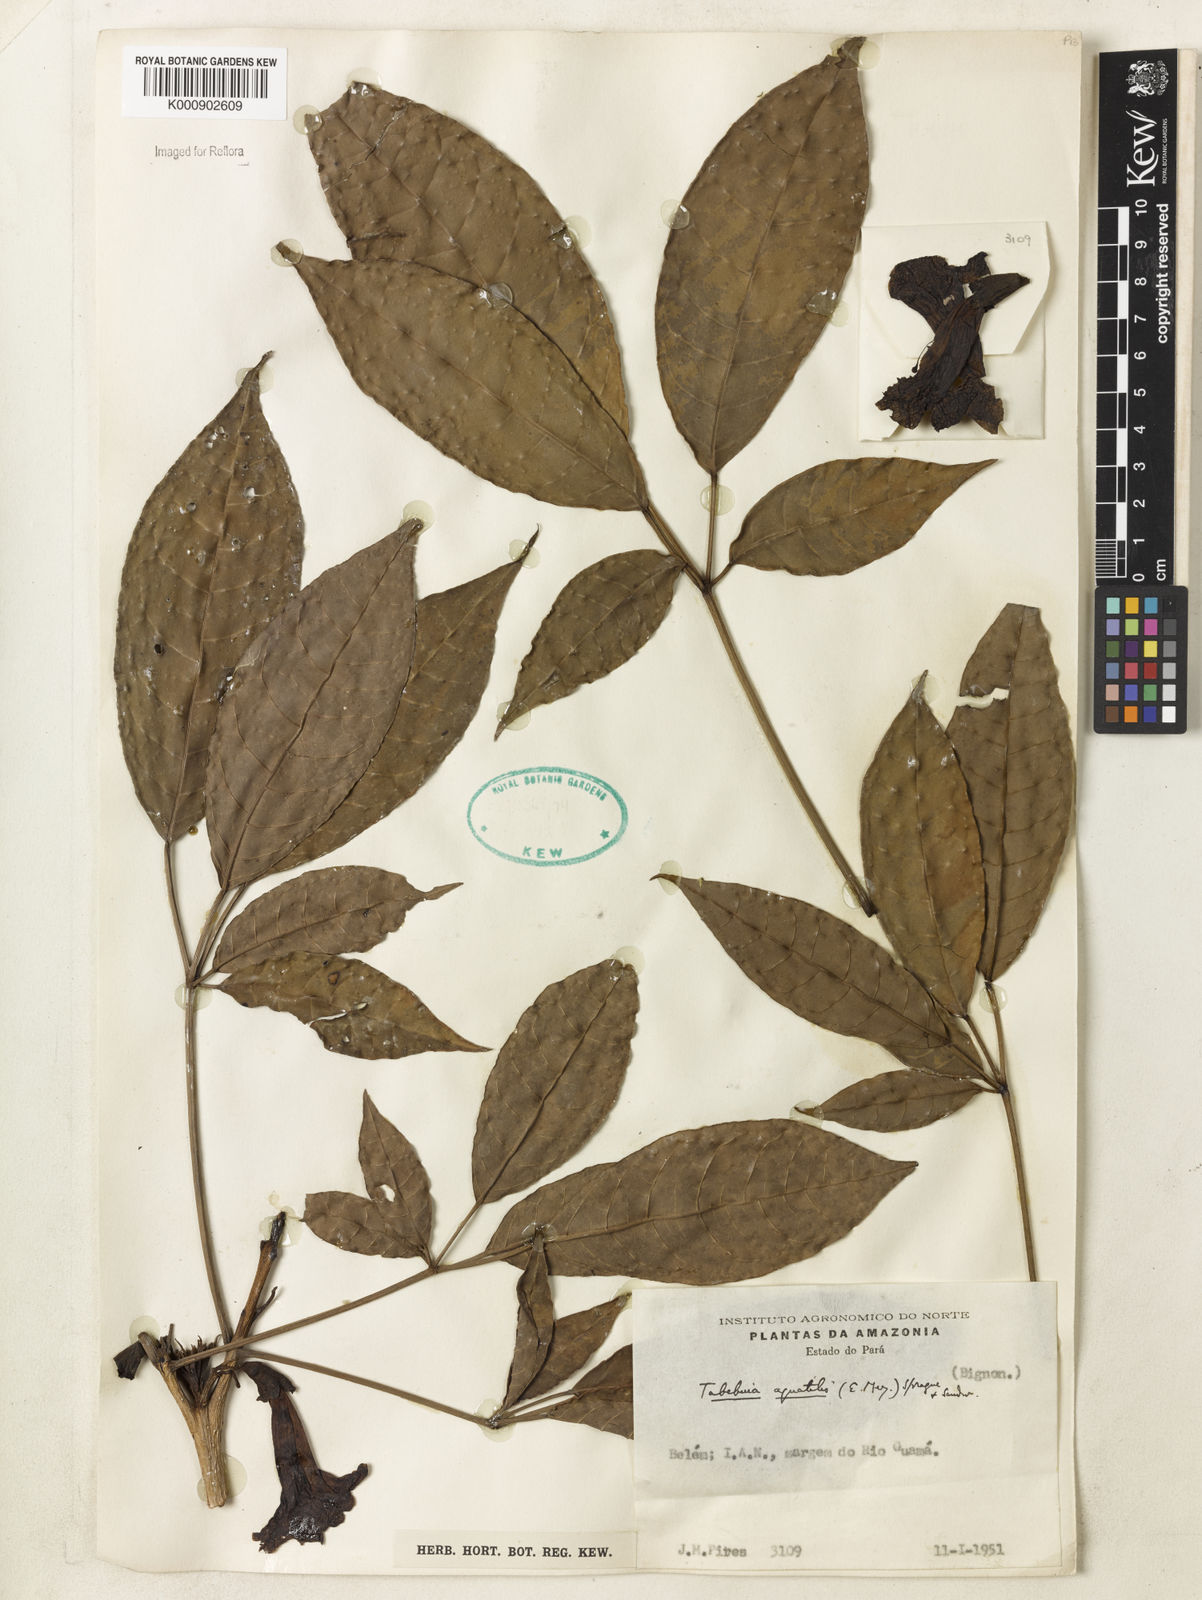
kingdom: Plantae
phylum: Tracheophyta
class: Magnoliopsida
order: Lamiales
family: Bignoniaceae
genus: Tabebuia
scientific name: Tabebuia fluviatilis
